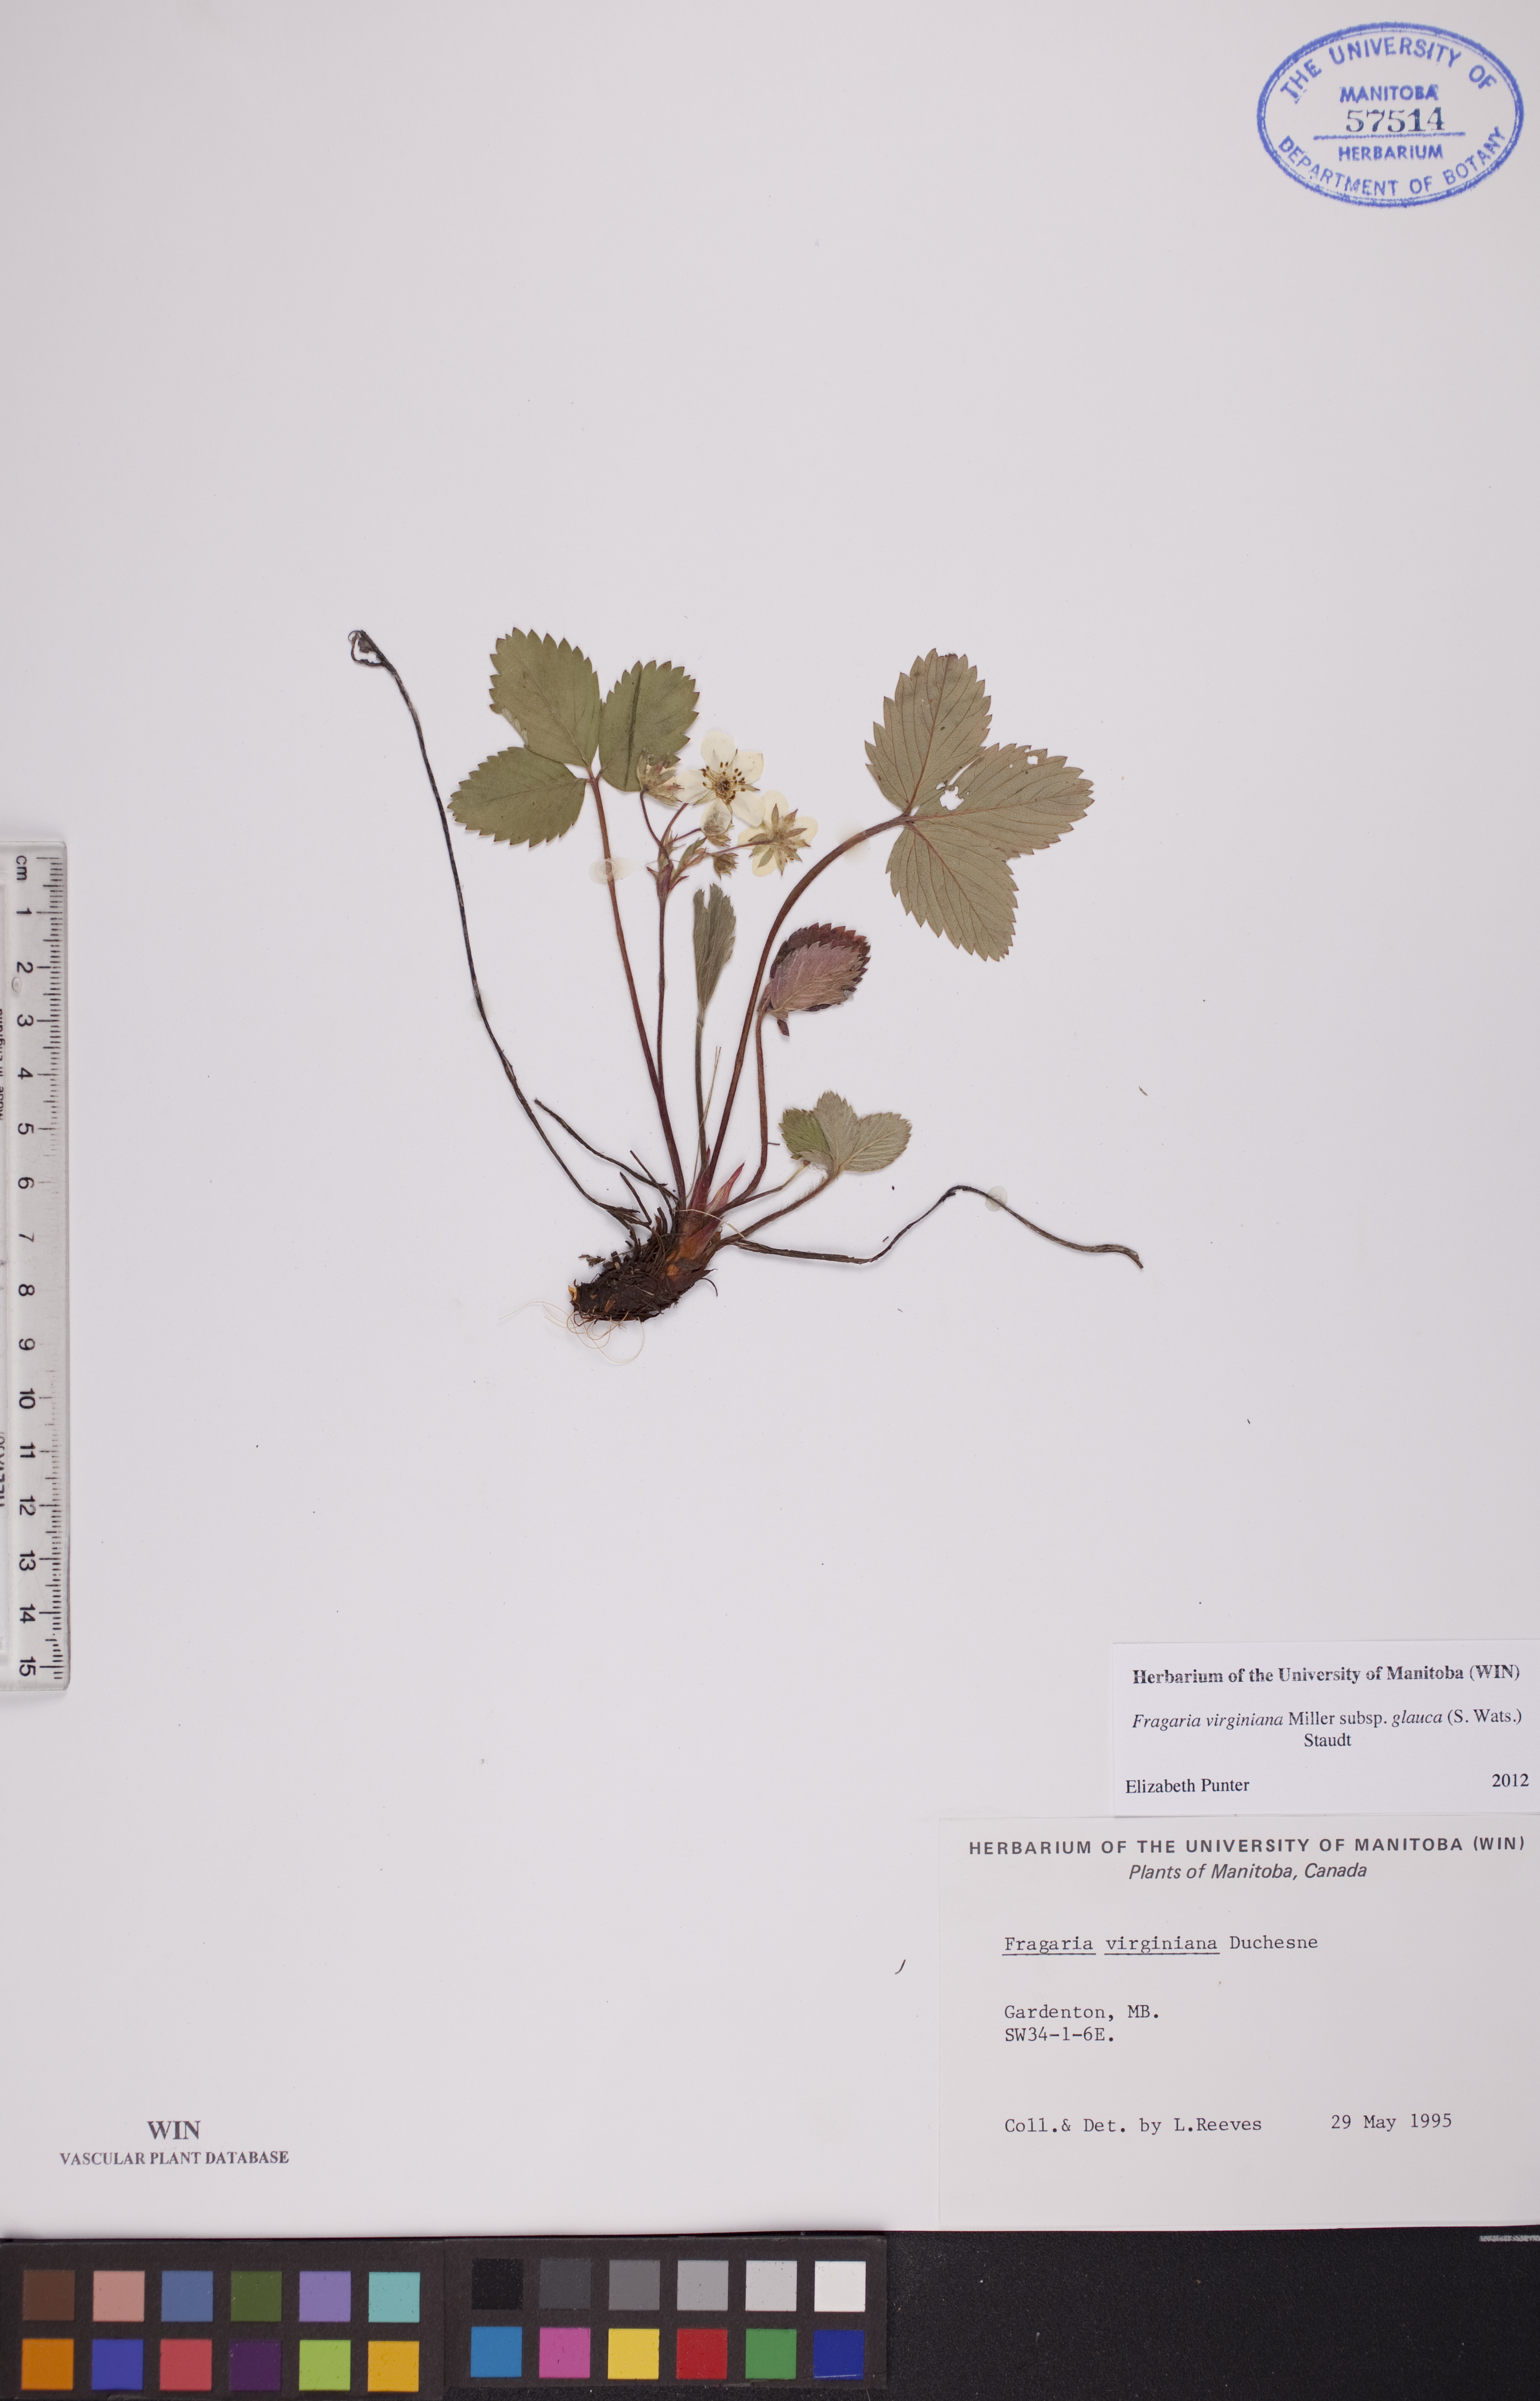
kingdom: Plantae
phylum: Tracheophyta
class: Magnoliopsida
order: Rosales
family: Rosaceae
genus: Fragaria
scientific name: Fragaria virginiana
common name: Thickleaved wild strawberry
